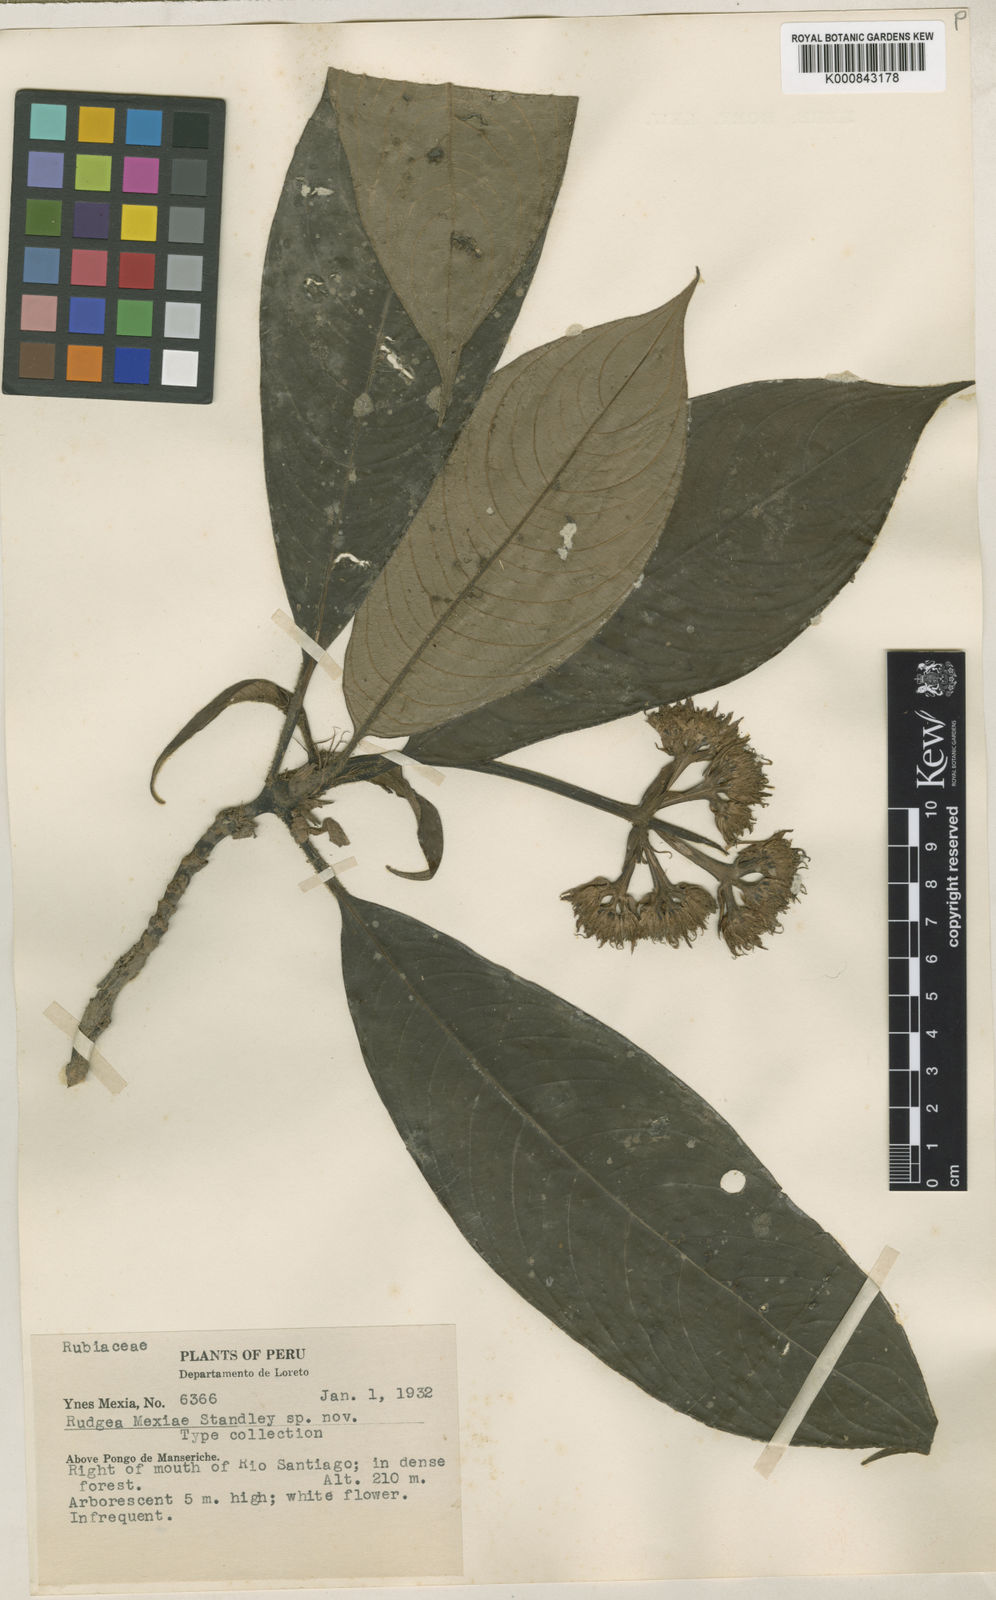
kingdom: Plantae
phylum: Tracheophyta
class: Magnoliopsida
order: Gentianales
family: Rubiaceae
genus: Palicourea
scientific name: Palicourea yneziae
